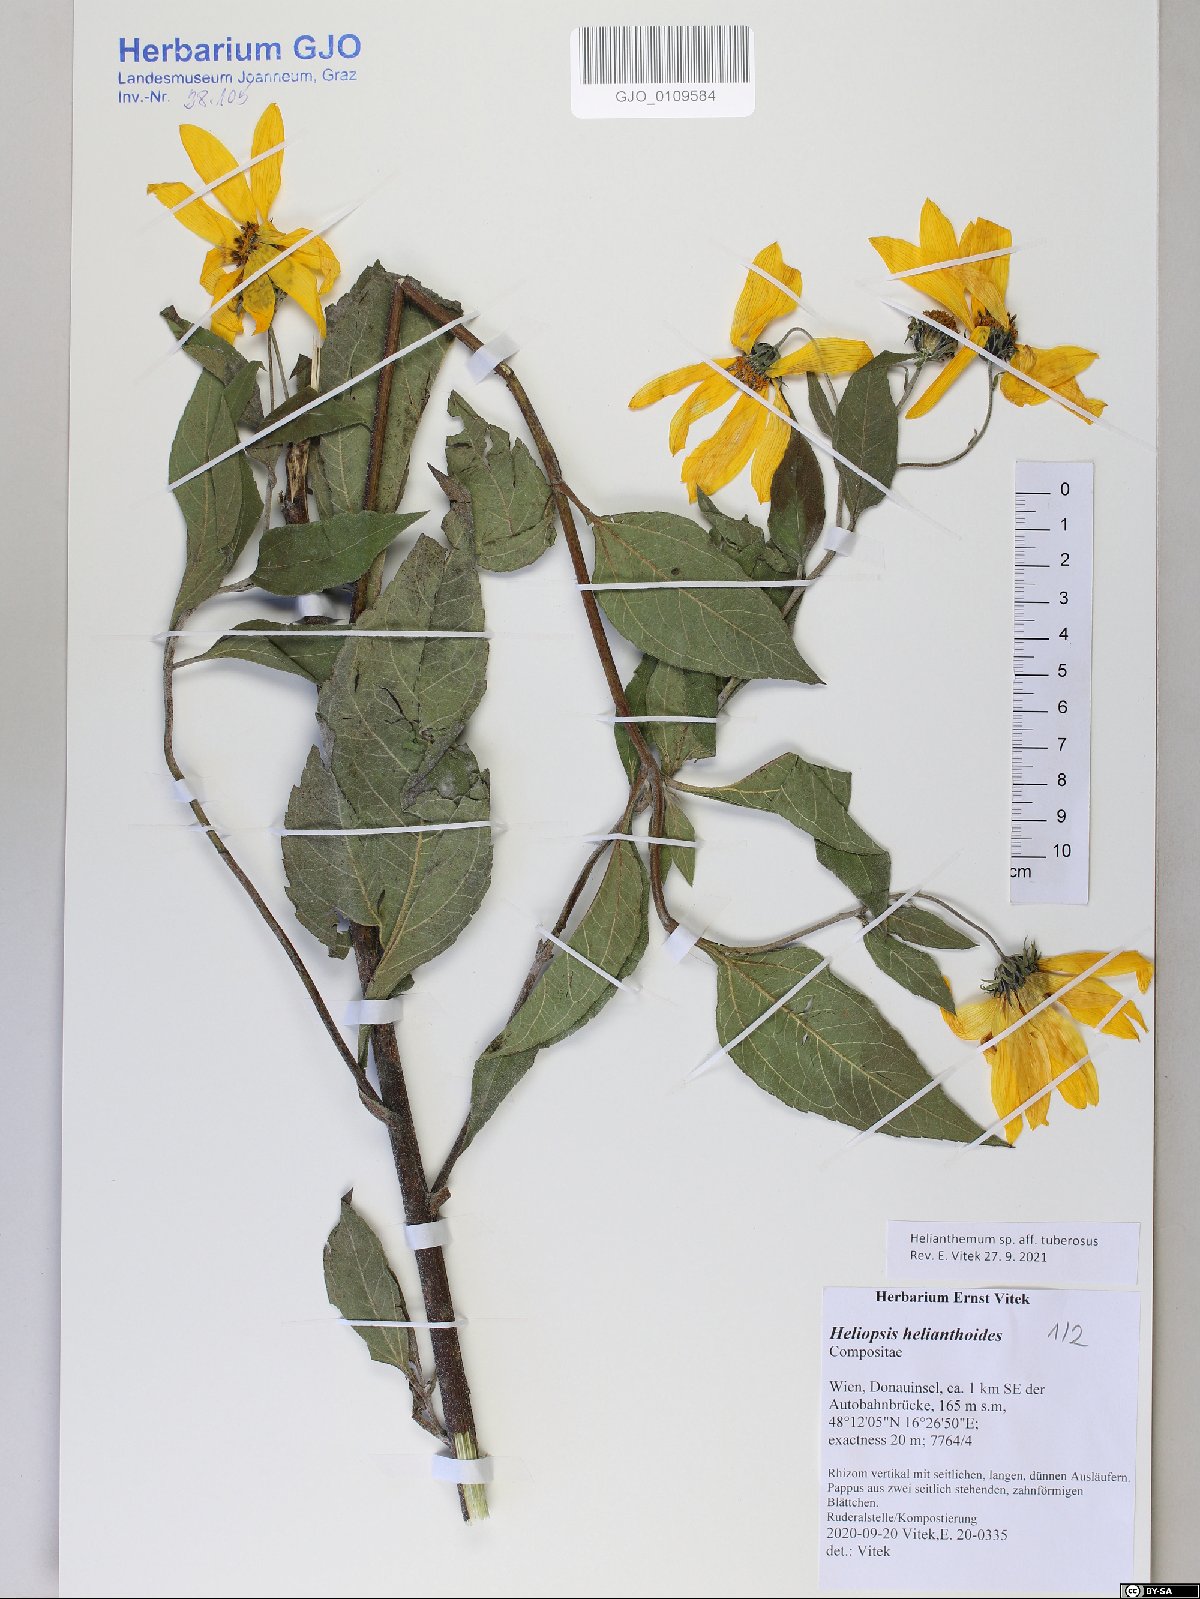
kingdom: Plantae
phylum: Tracheophyta
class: Magnoliopsida
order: Asterales
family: Asteraceae
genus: Helianthus
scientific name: Helianthus tuberosus
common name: Jerusalem artichoke
